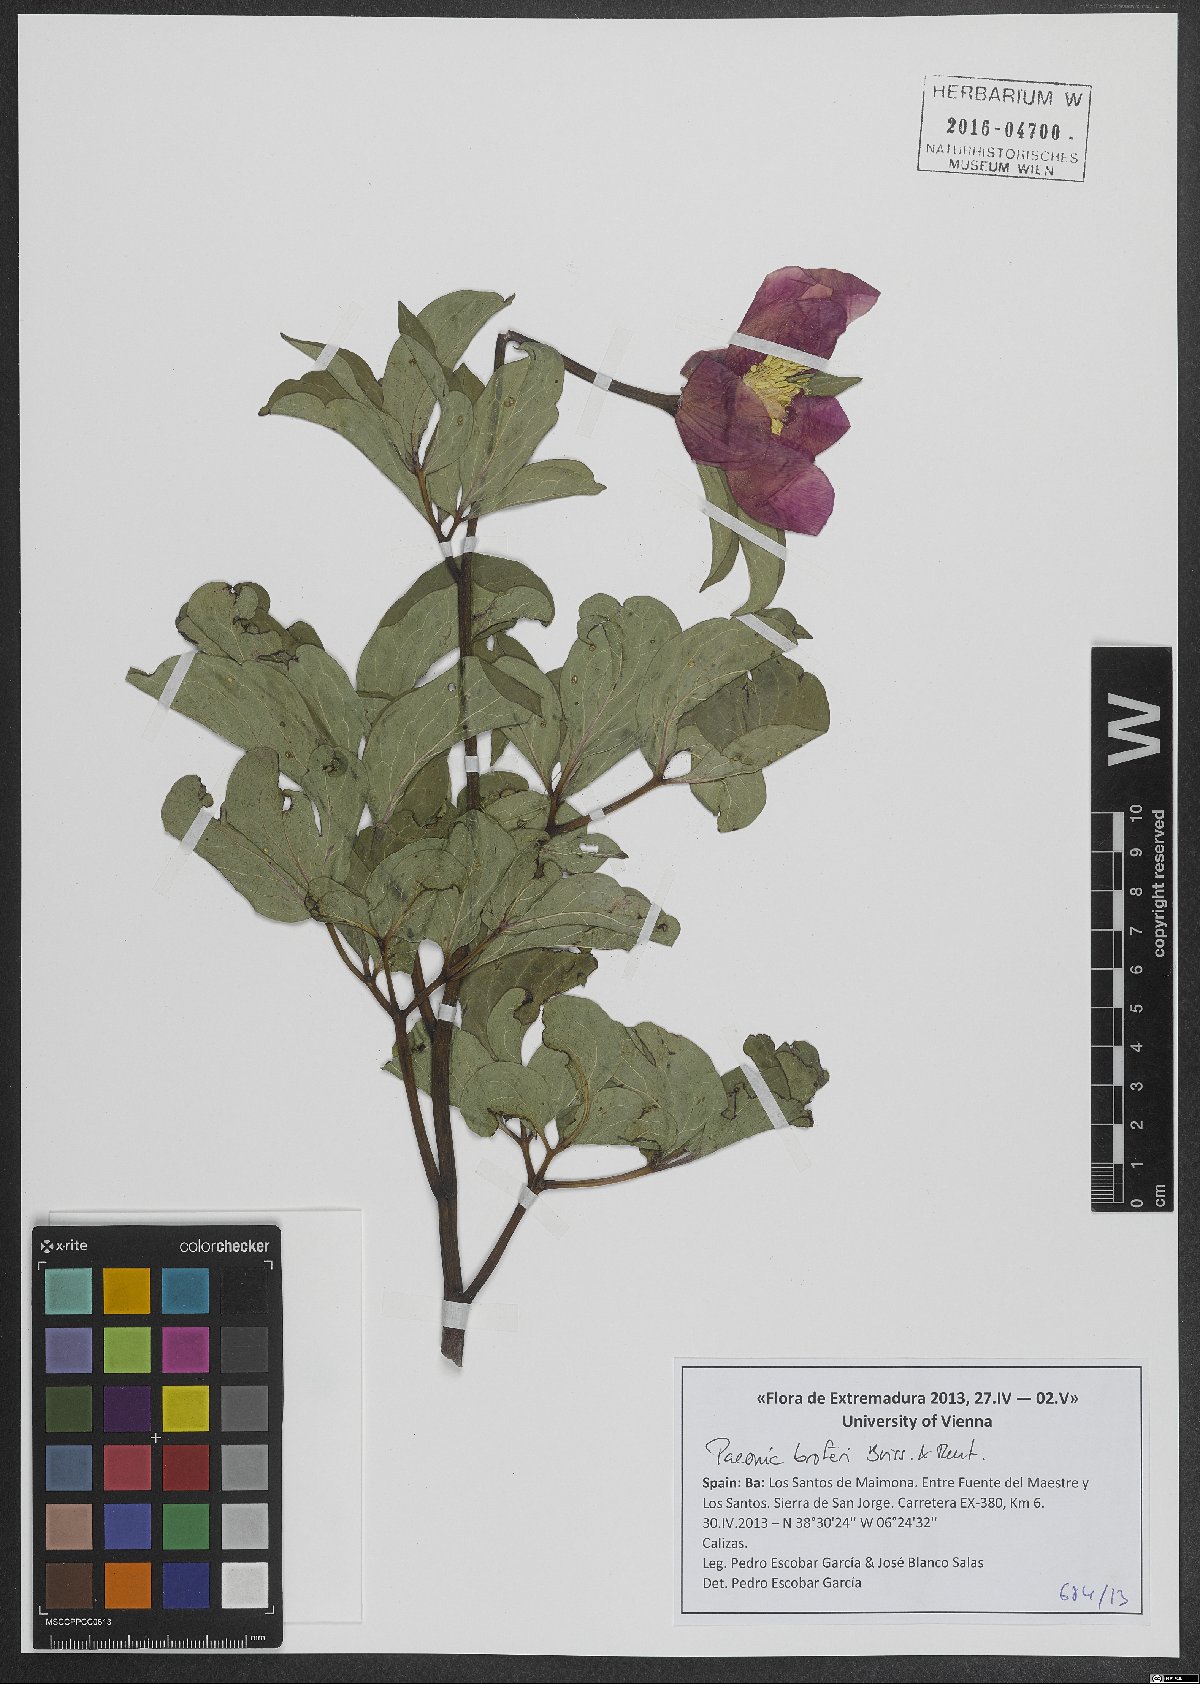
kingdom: Plantae
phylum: Tracheophyta
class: Magnoliopsida
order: Saxifragales
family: Paeoniaceae
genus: Paeonia
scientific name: Paeonia broteroi
